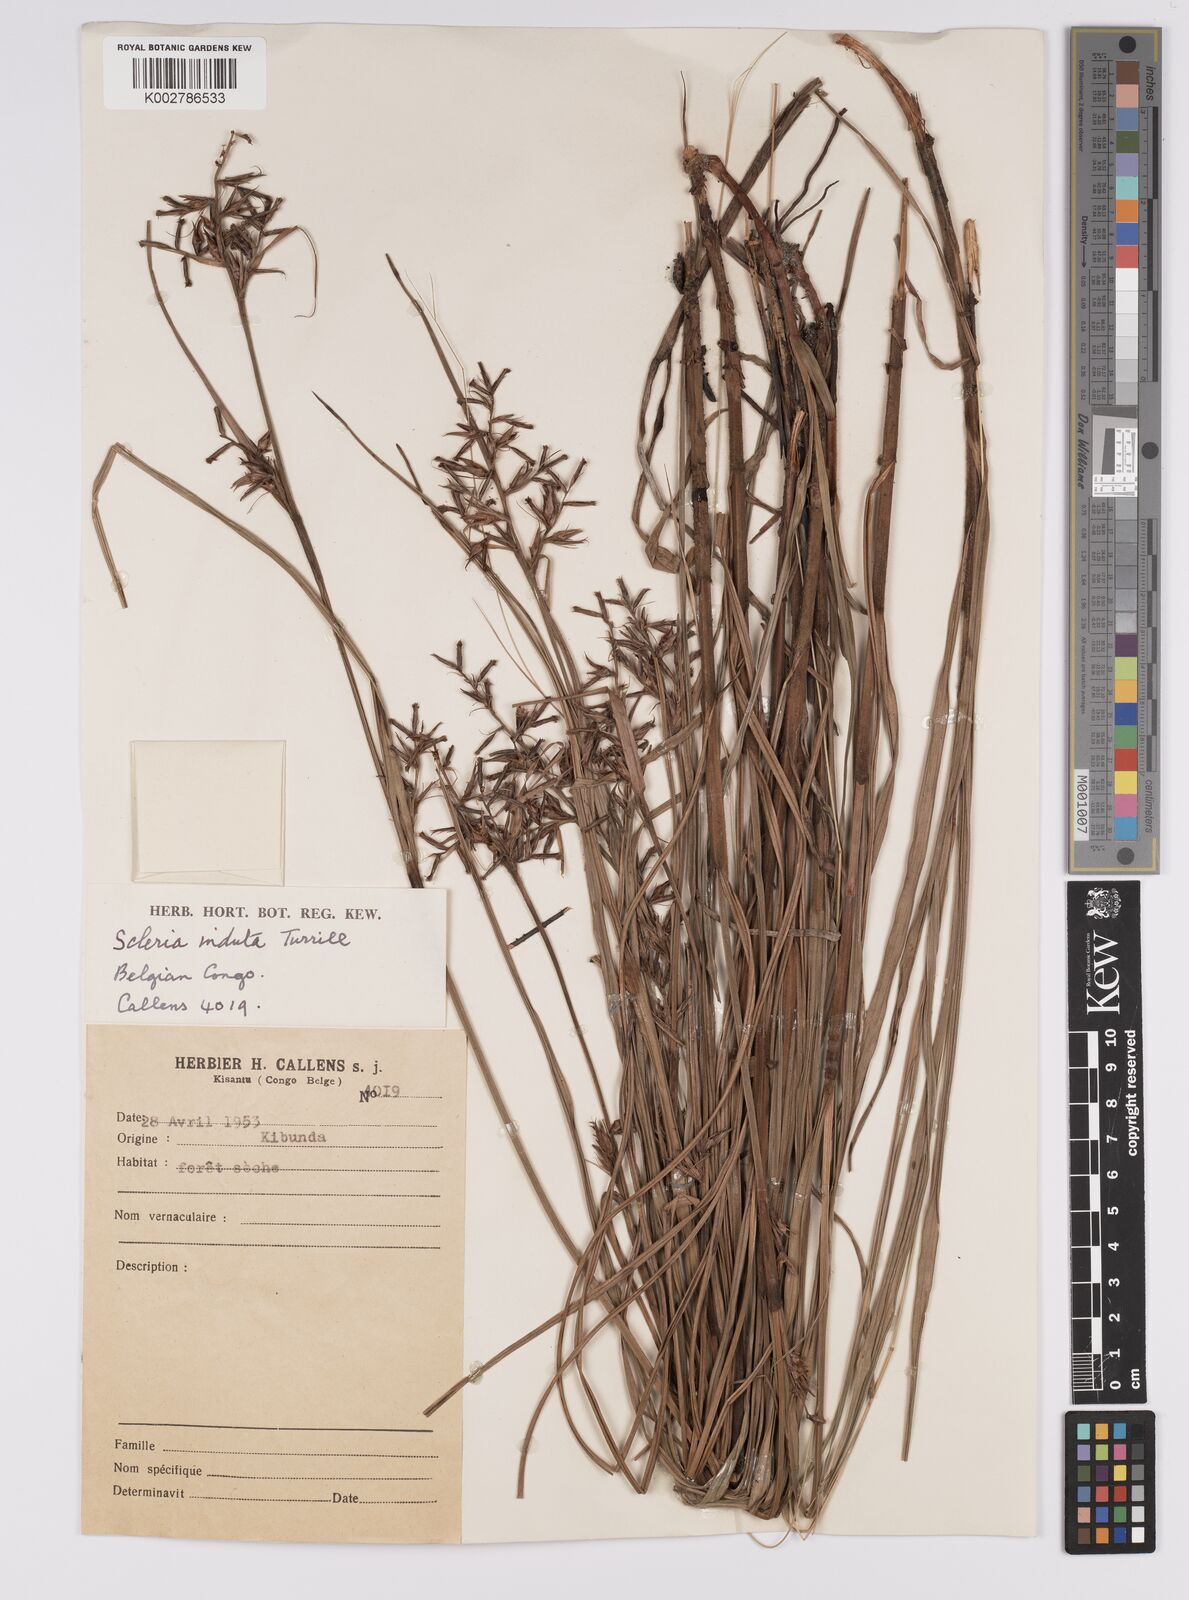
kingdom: Plantae
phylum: Tracheophyta
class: Liliopsida
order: Poales
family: Cyperaceae
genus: Scleria
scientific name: Scleria induta
